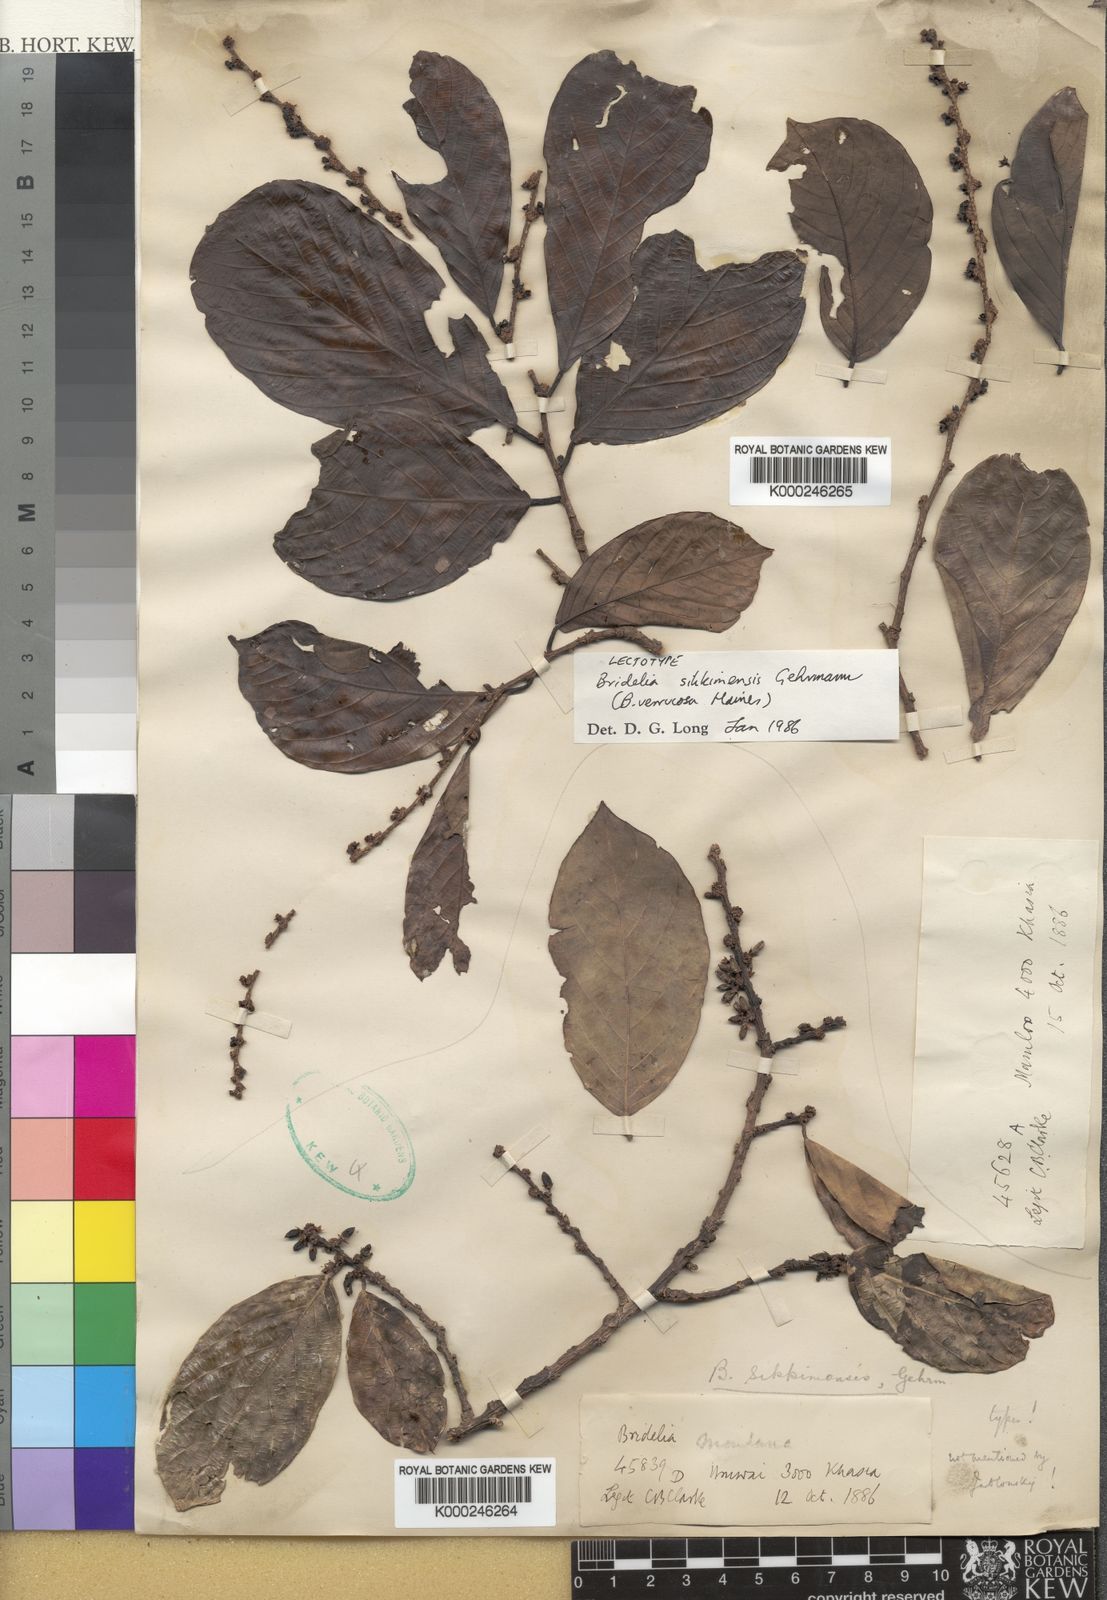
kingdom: Plantae
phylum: Tracheophyta
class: Magnoliopsida
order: Malpighiales
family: Phyllanthaceae
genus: Bridelia
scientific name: Bridelia sikkimensis
